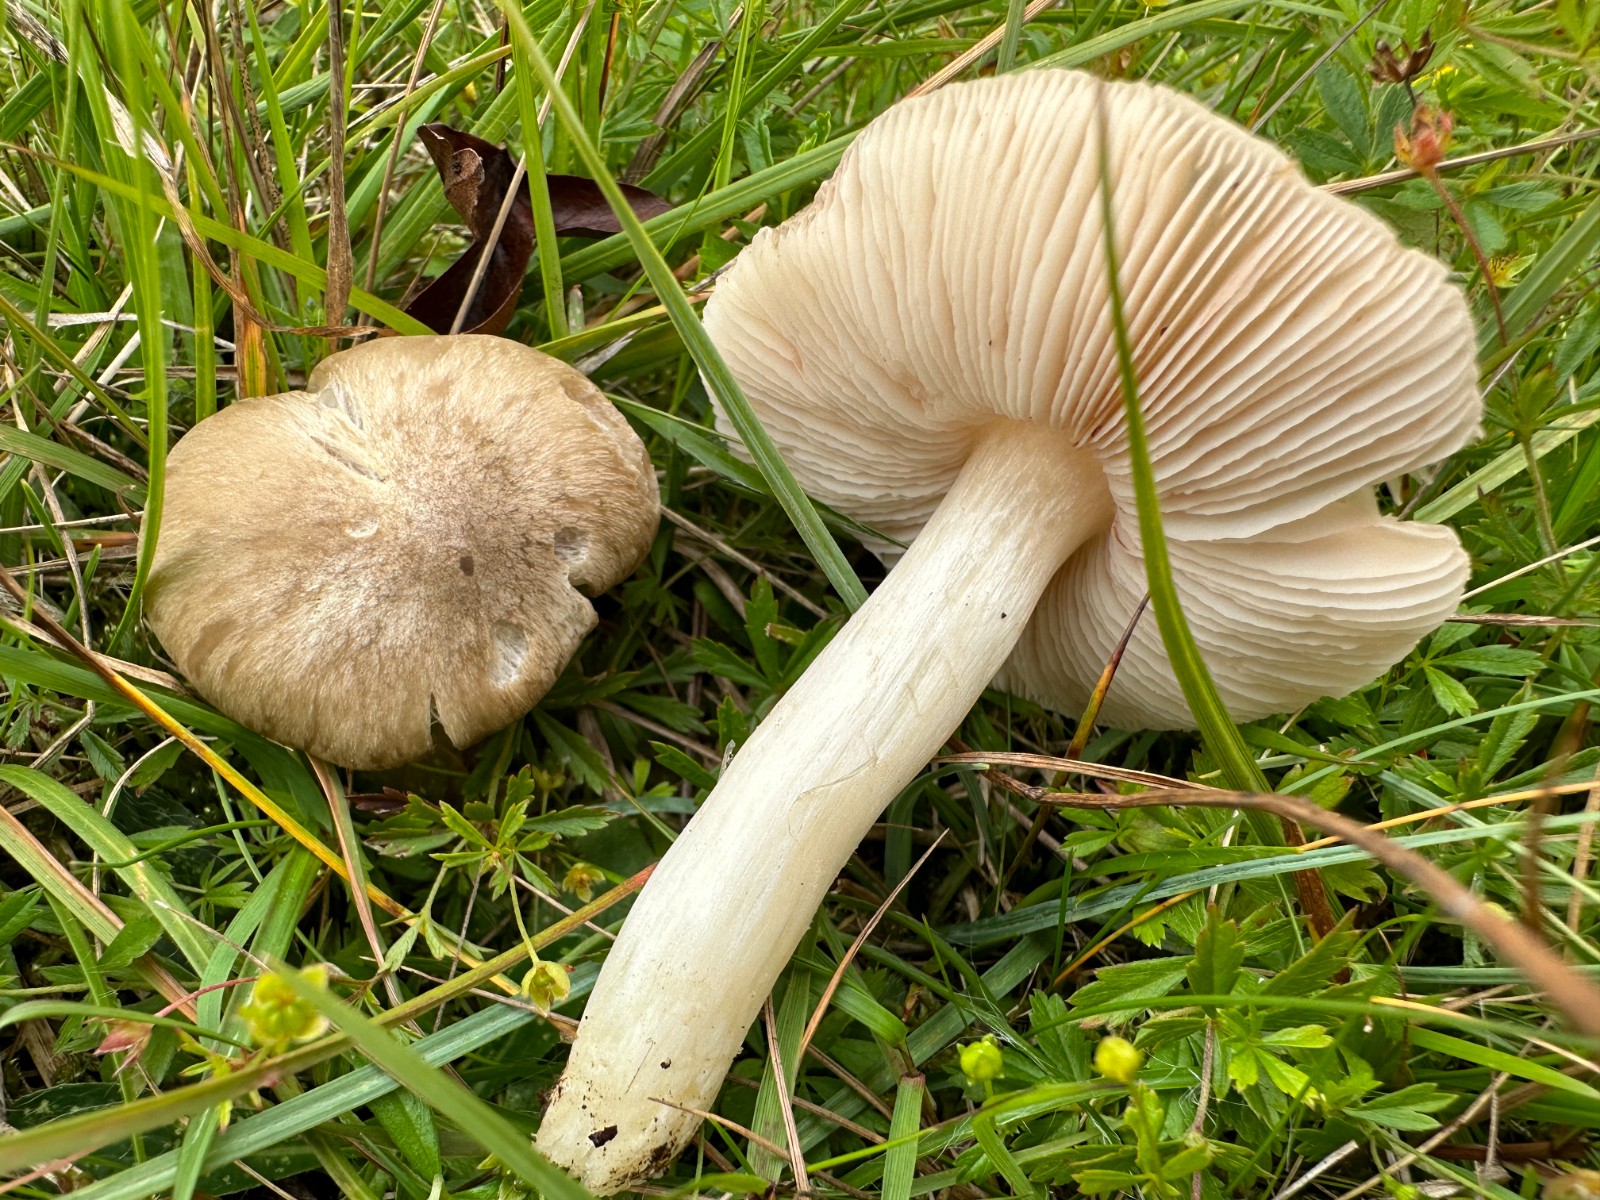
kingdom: Fungi
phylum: Basidiomycota
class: Agaricomycetes
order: Agaricales
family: Entolomataceae
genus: Entoloma
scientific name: Entoloma prunuloides
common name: mel-rødblad
